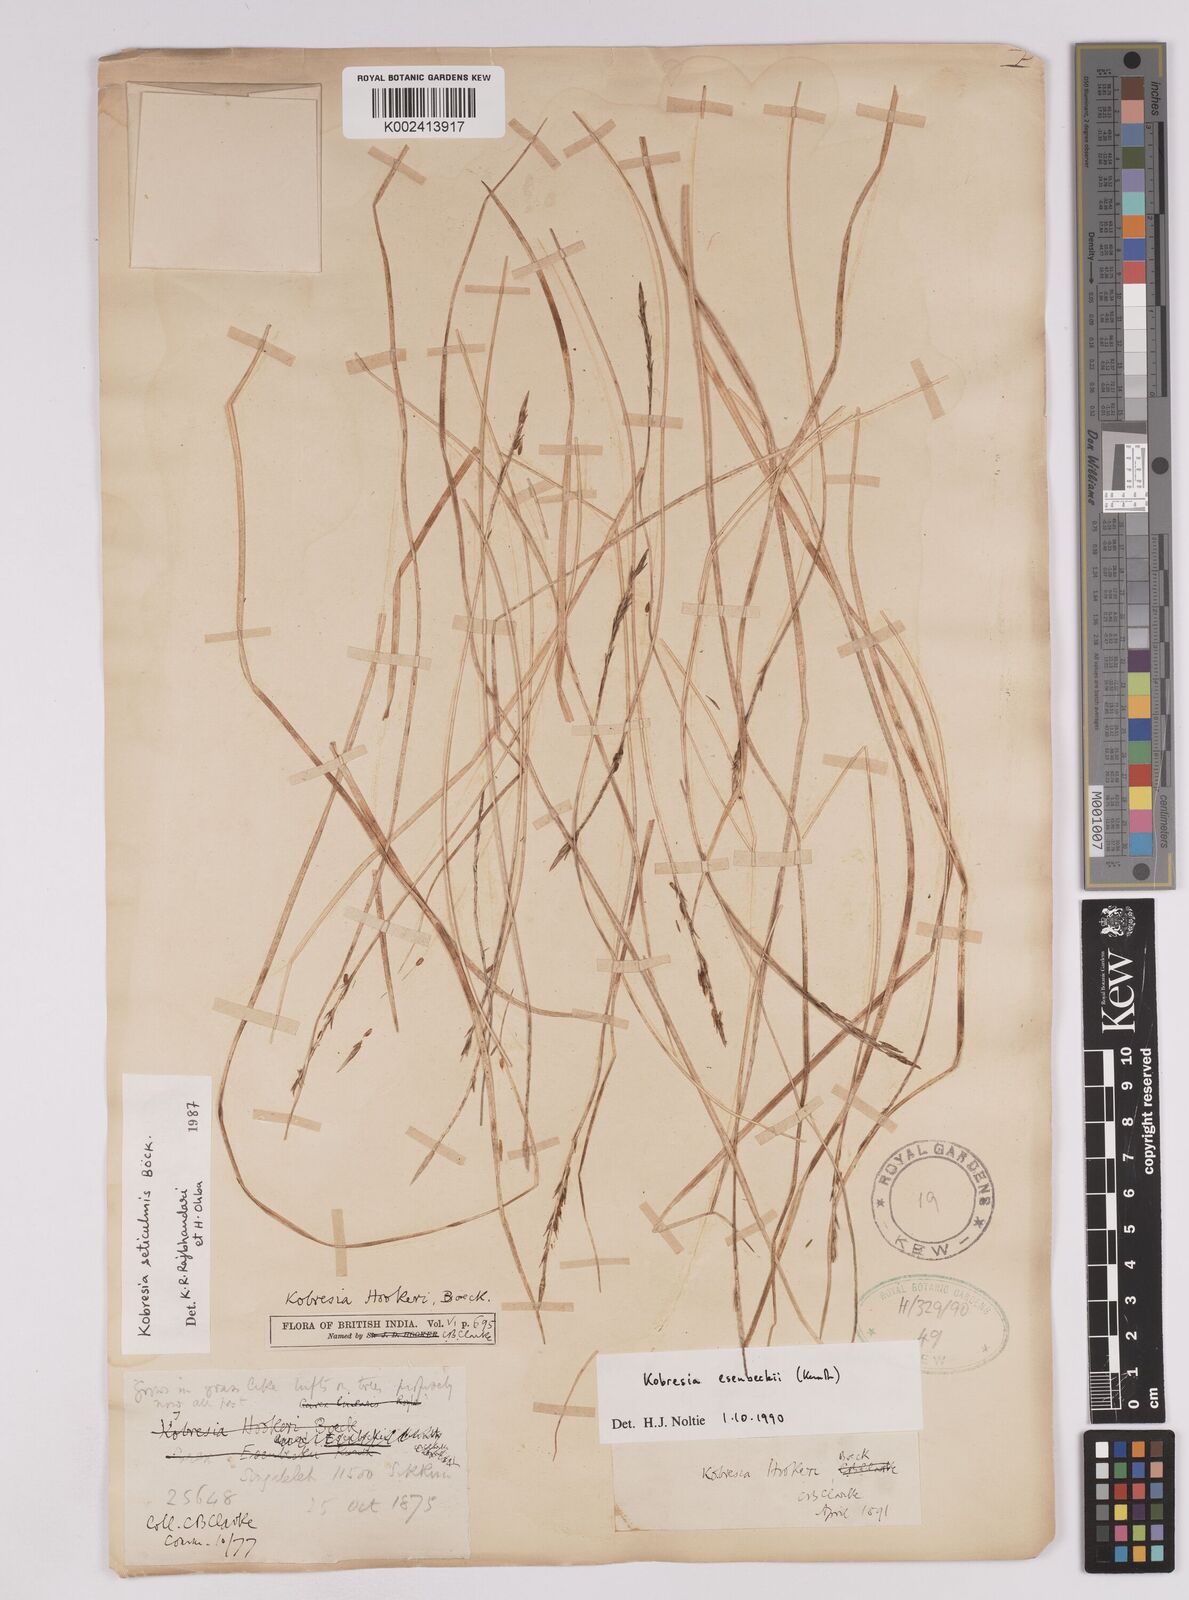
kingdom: Plantae
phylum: Tracheophyta
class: Liliopsida
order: Poales
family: Cyperaceae
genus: Carex
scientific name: Carex esenbeckii
